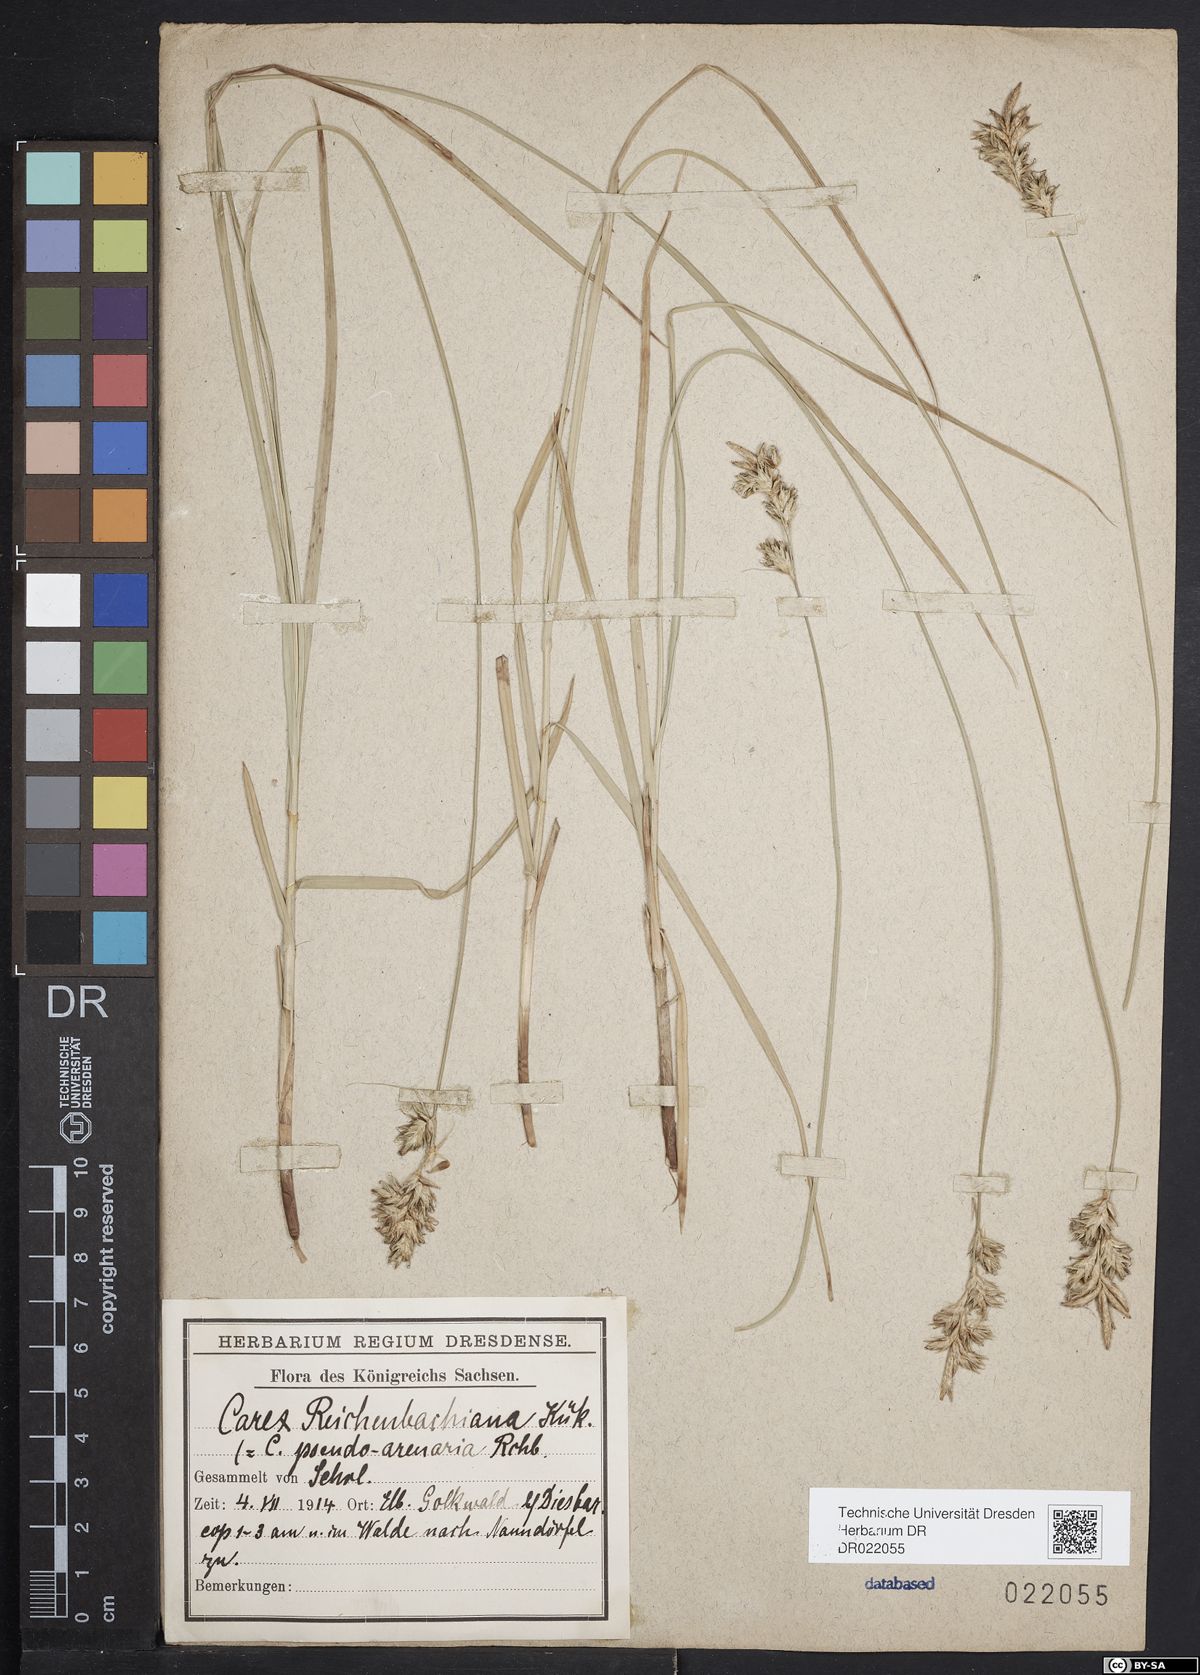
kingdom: Plantae
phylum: Tracheophyta
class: Liliopsida
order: Poales
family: Cyperaceae
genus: Carex
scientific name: Carex pseudobrizoides
